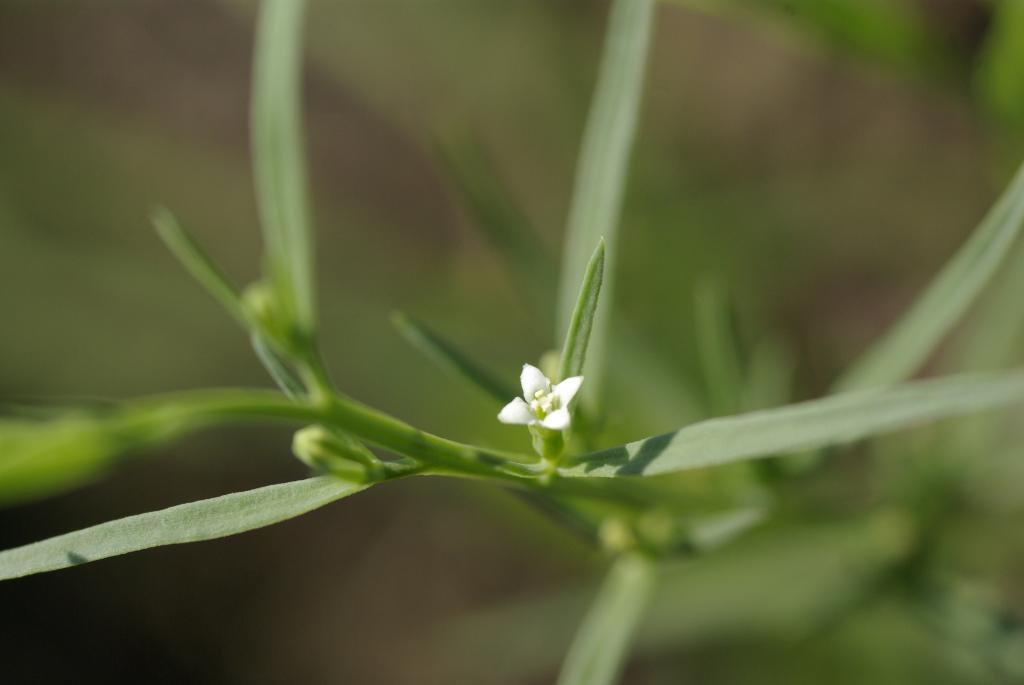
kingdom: Plantae
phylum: Tracheophyta
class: Magnoliopsida
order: Santalales
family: Thesiaceae
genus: Thesium
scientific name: Thesium chinense
